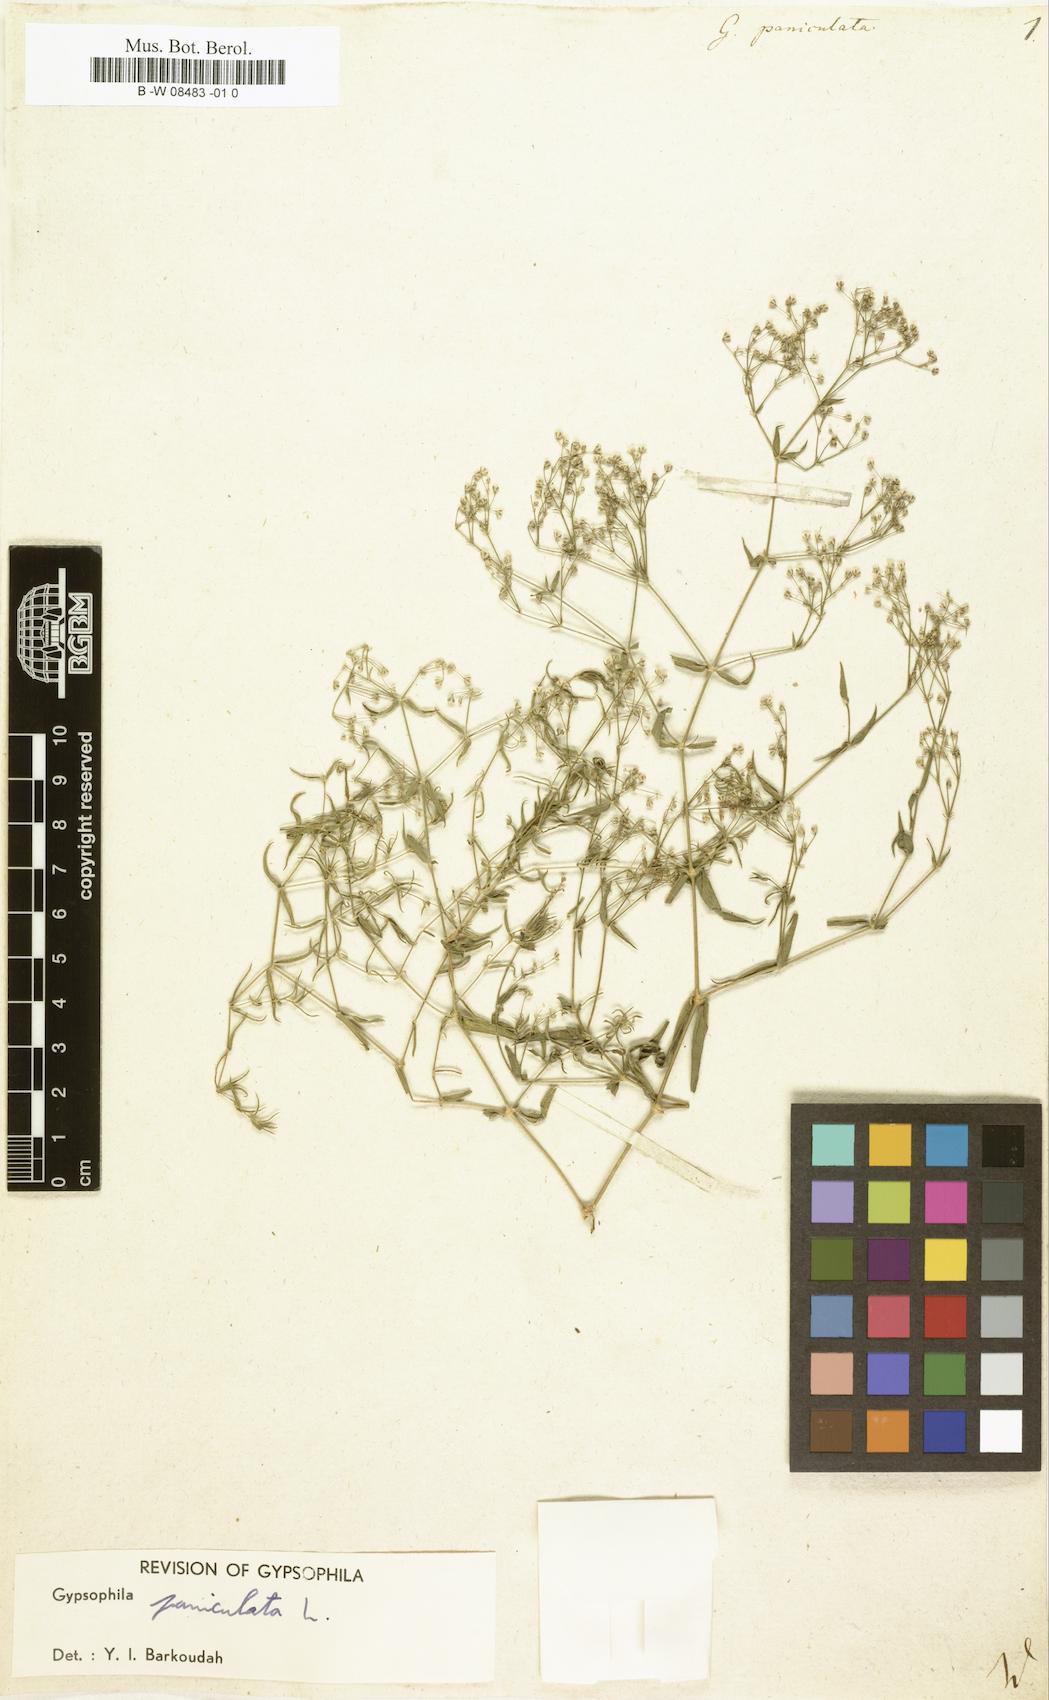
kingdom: Plantae
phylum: Tracheophyta
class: Magnoliopsida
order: Caryophyllales
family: Caryophyllaceae
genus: Gypsophila
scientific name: Gypsophila paniculata
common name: Baby's-breath
